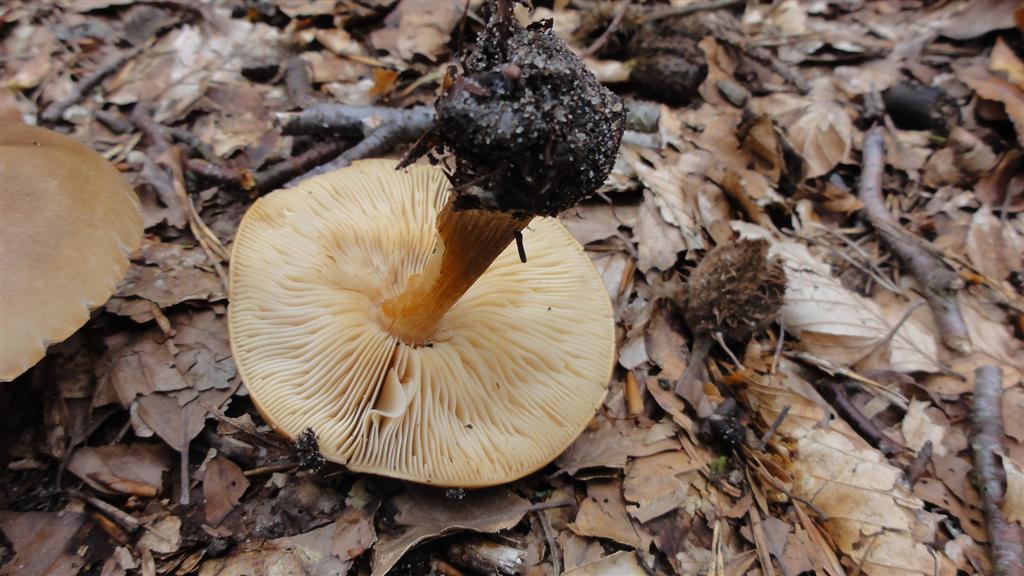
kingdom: Fungi
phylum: Basidiomycota
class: Agaricomycetes
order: Agaricales
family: Tricholomataceae
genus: Melanoleuca
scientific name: Melanoleuca cognata
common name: gyldengrå munkehat
